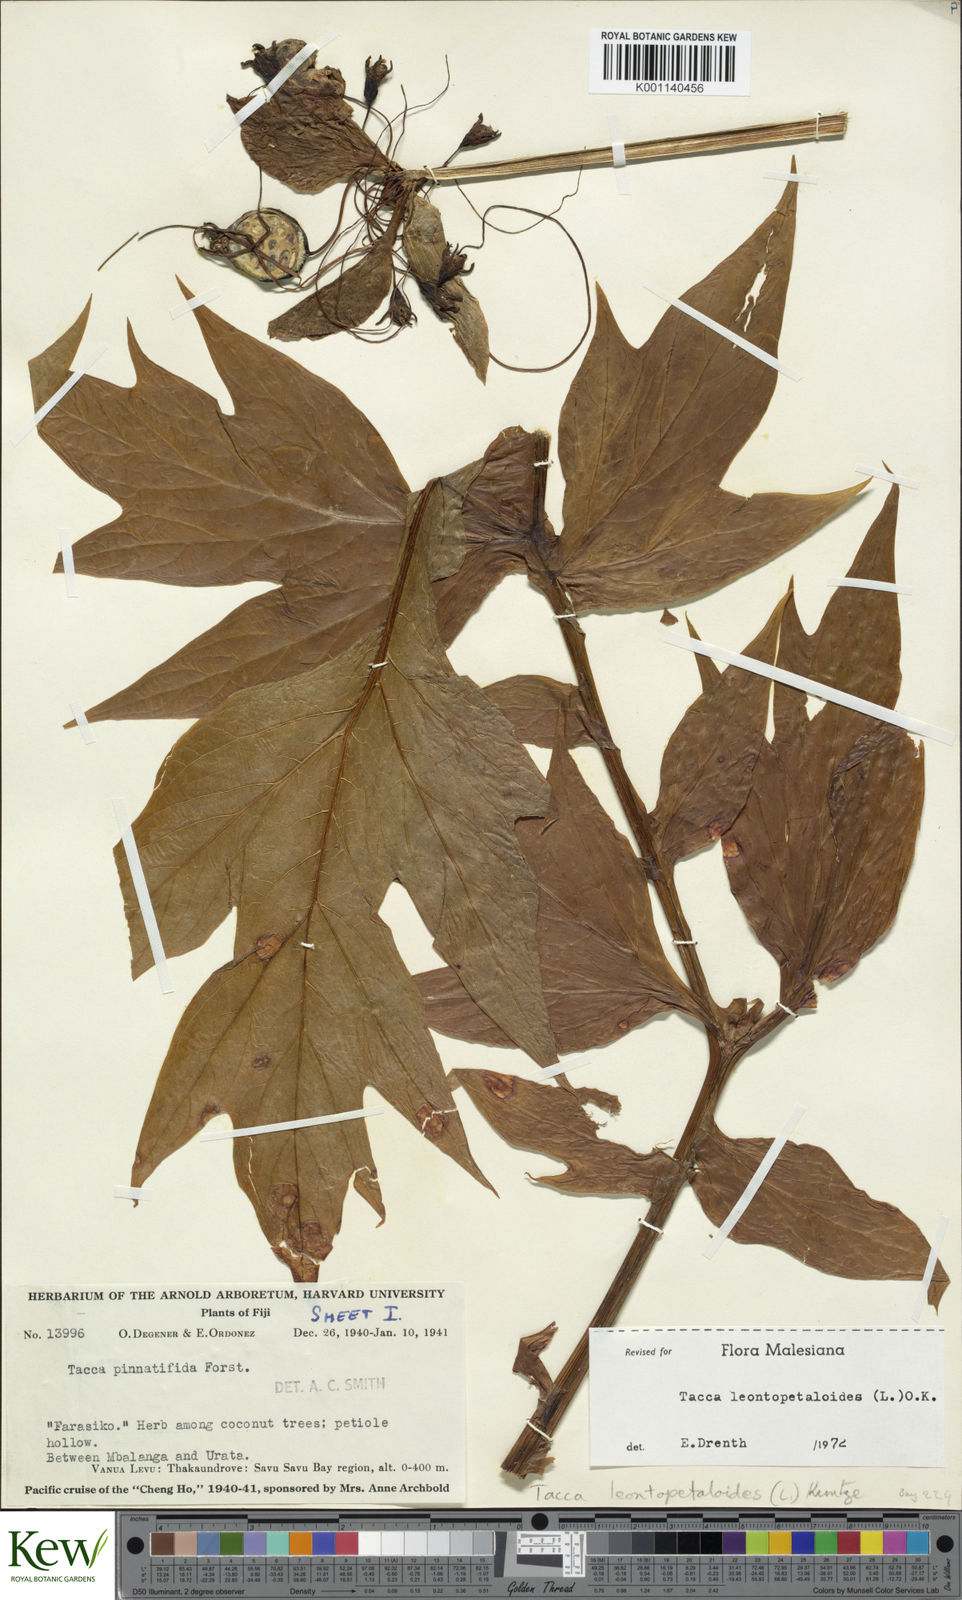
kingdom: Plantae
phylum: Tracheophyta
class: Liliopsida
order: Dioscoreales
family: Dioscoreaceae
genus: Tacca
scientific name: Tacca leontopetaloides
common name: Arrowroot
